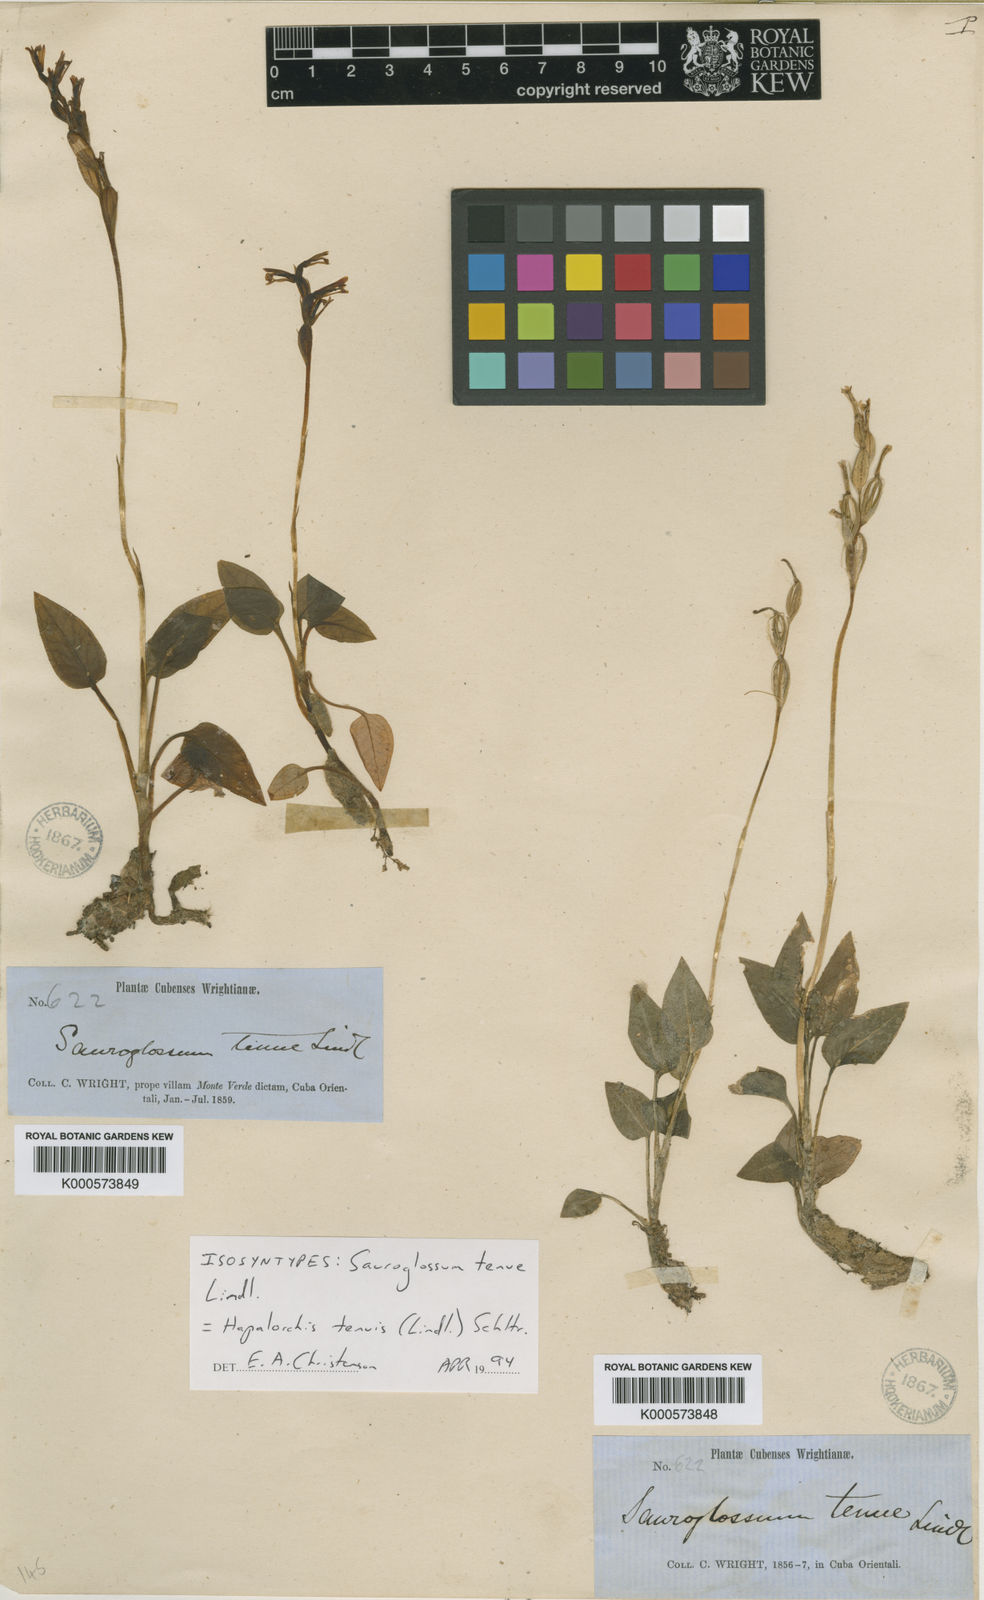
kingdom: Plantae
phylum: Tracheophyta
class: Liliopsida
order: Asparagales
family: Orchidaceae
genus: Hapalorchis
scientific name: Hapalorchis lineata
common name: Tropical ladies'-tresses
